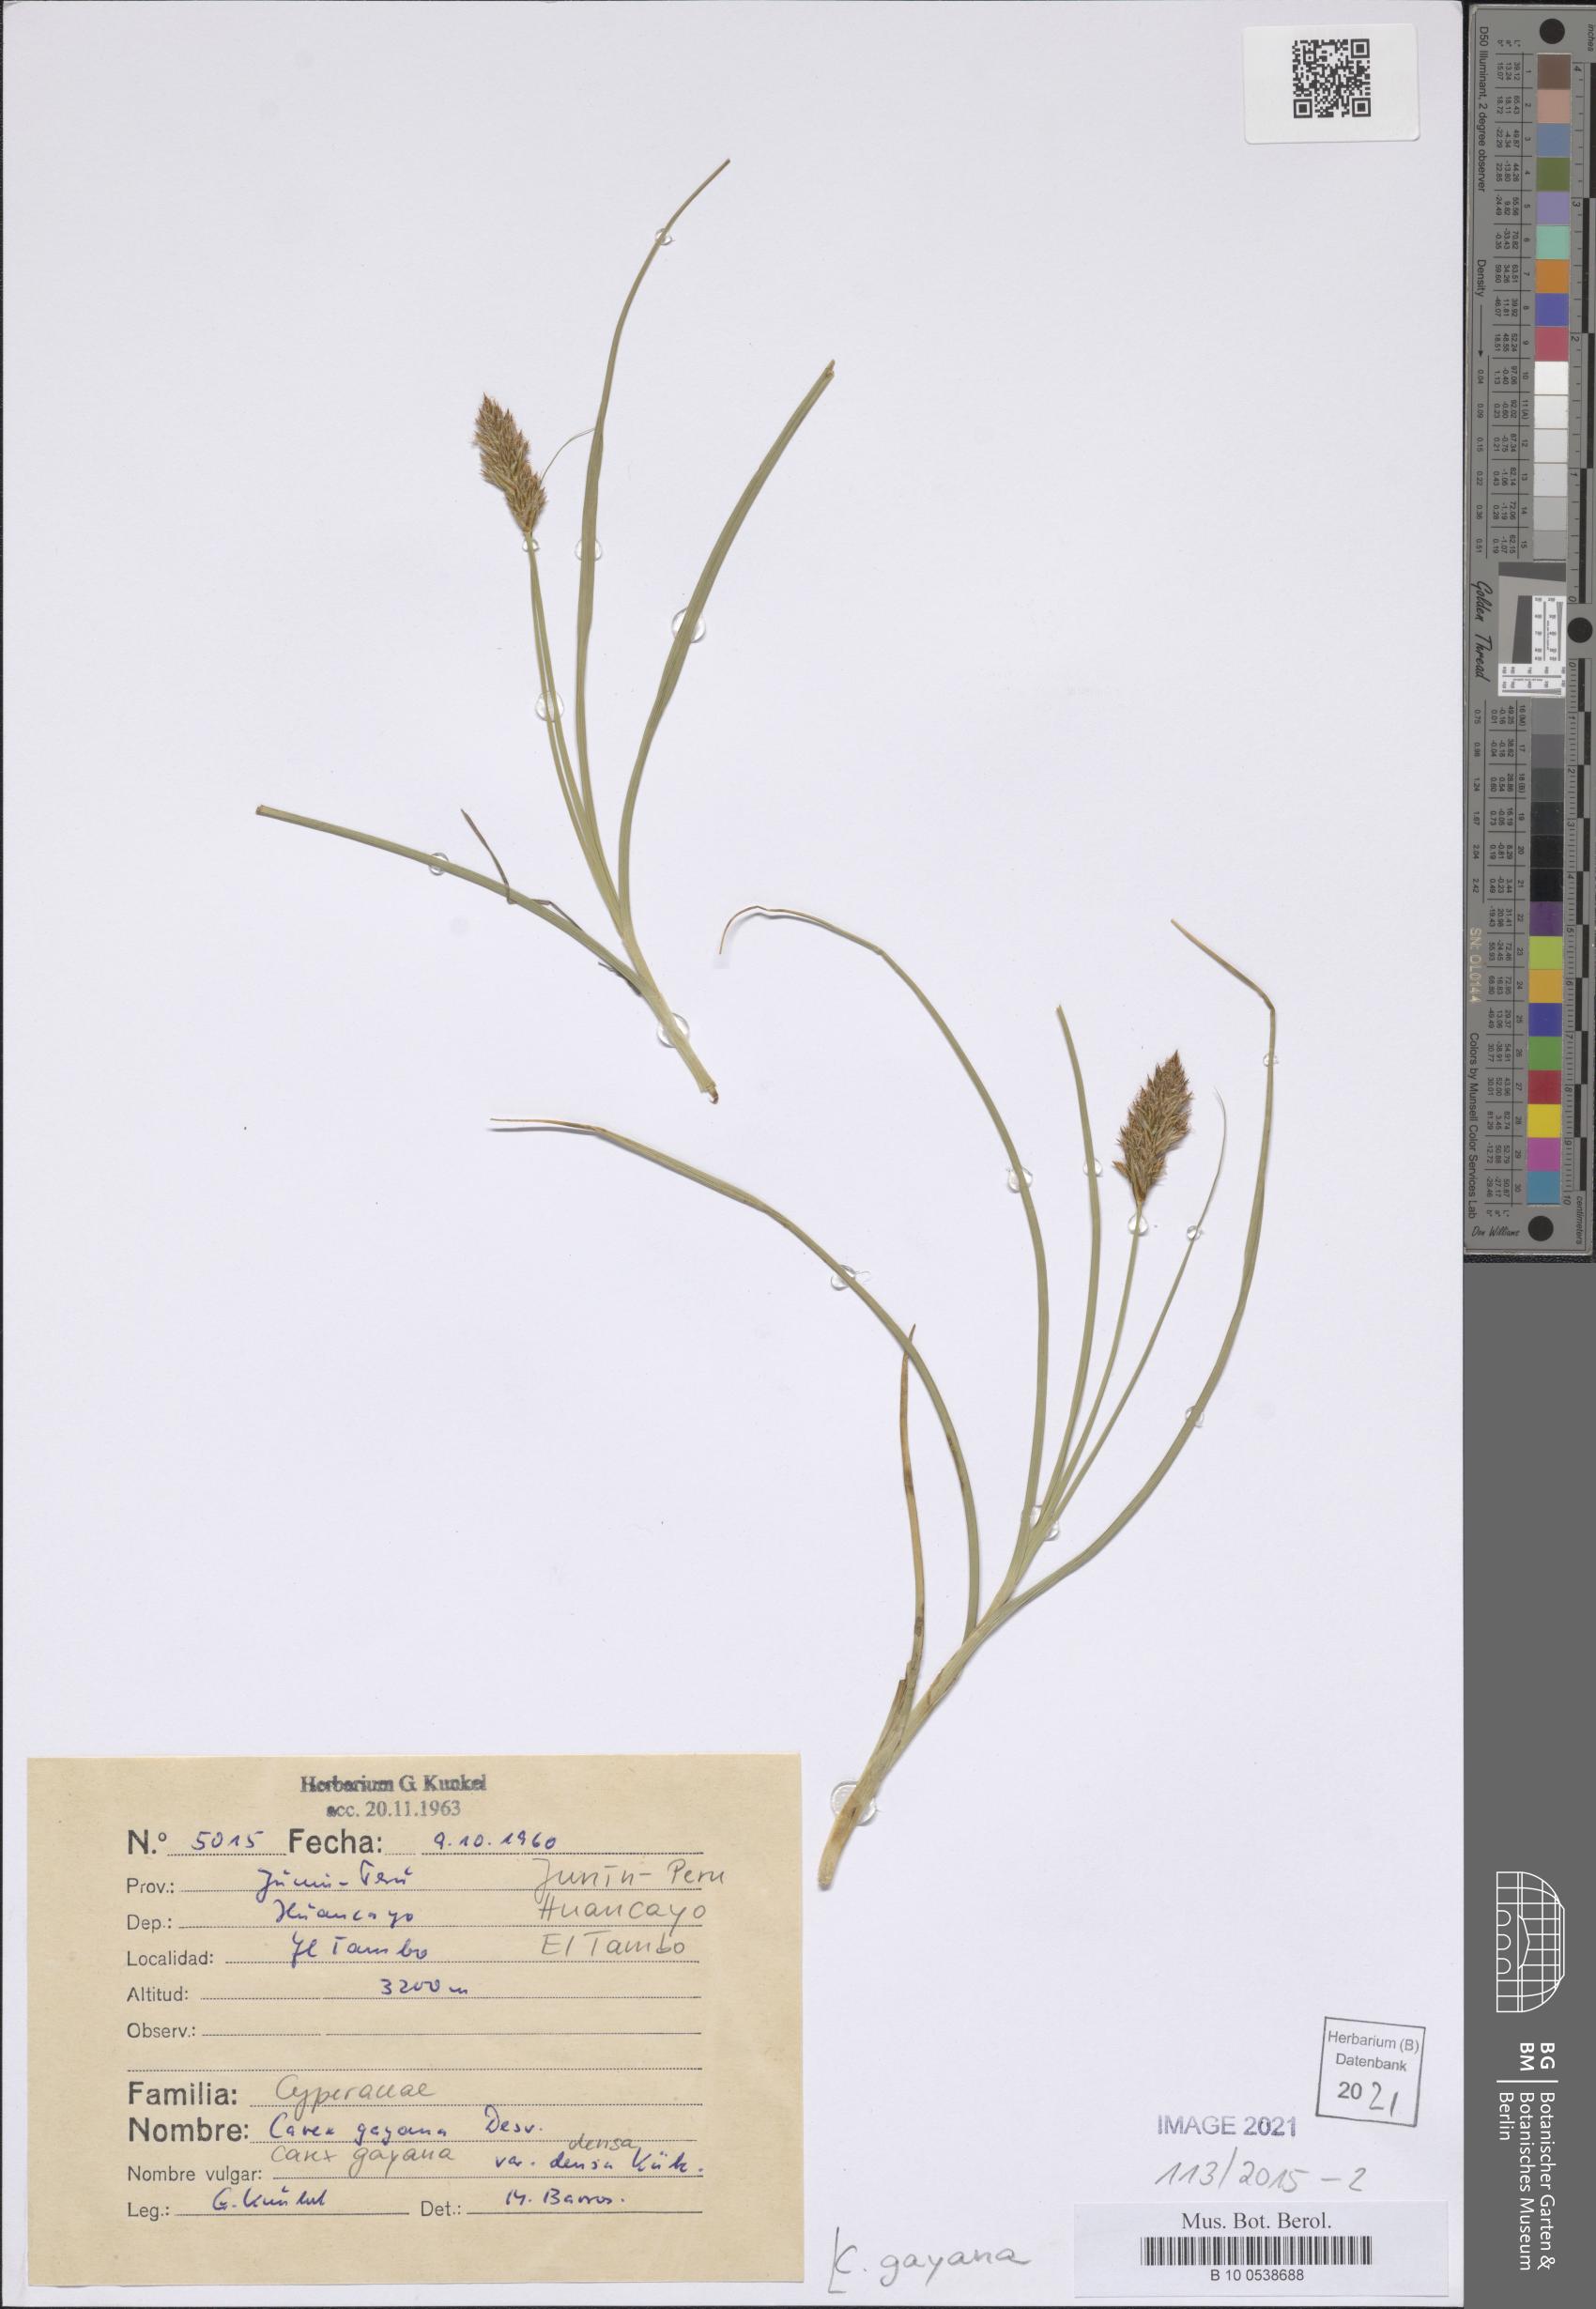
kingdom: Plantae
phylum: Tracheophyta
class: Liliopsida
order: Poales
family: Cyperaceae
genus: Carex
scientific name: Carex gayana
